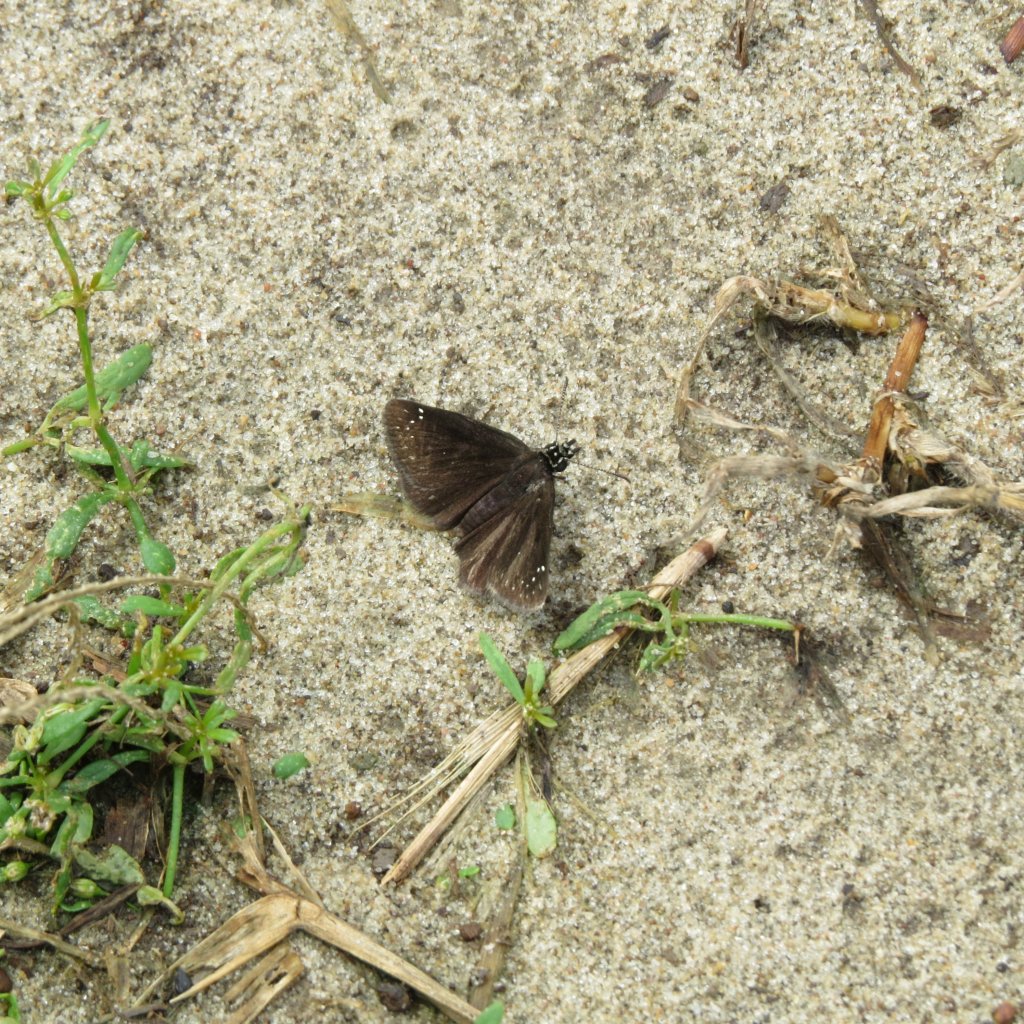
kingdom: Animalia
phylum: Arthropoda
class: Insecta
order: Lepidoptera
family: Hesperiidae
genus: Pholisora
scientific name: Pholisora catullus
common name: Common Sootywing
